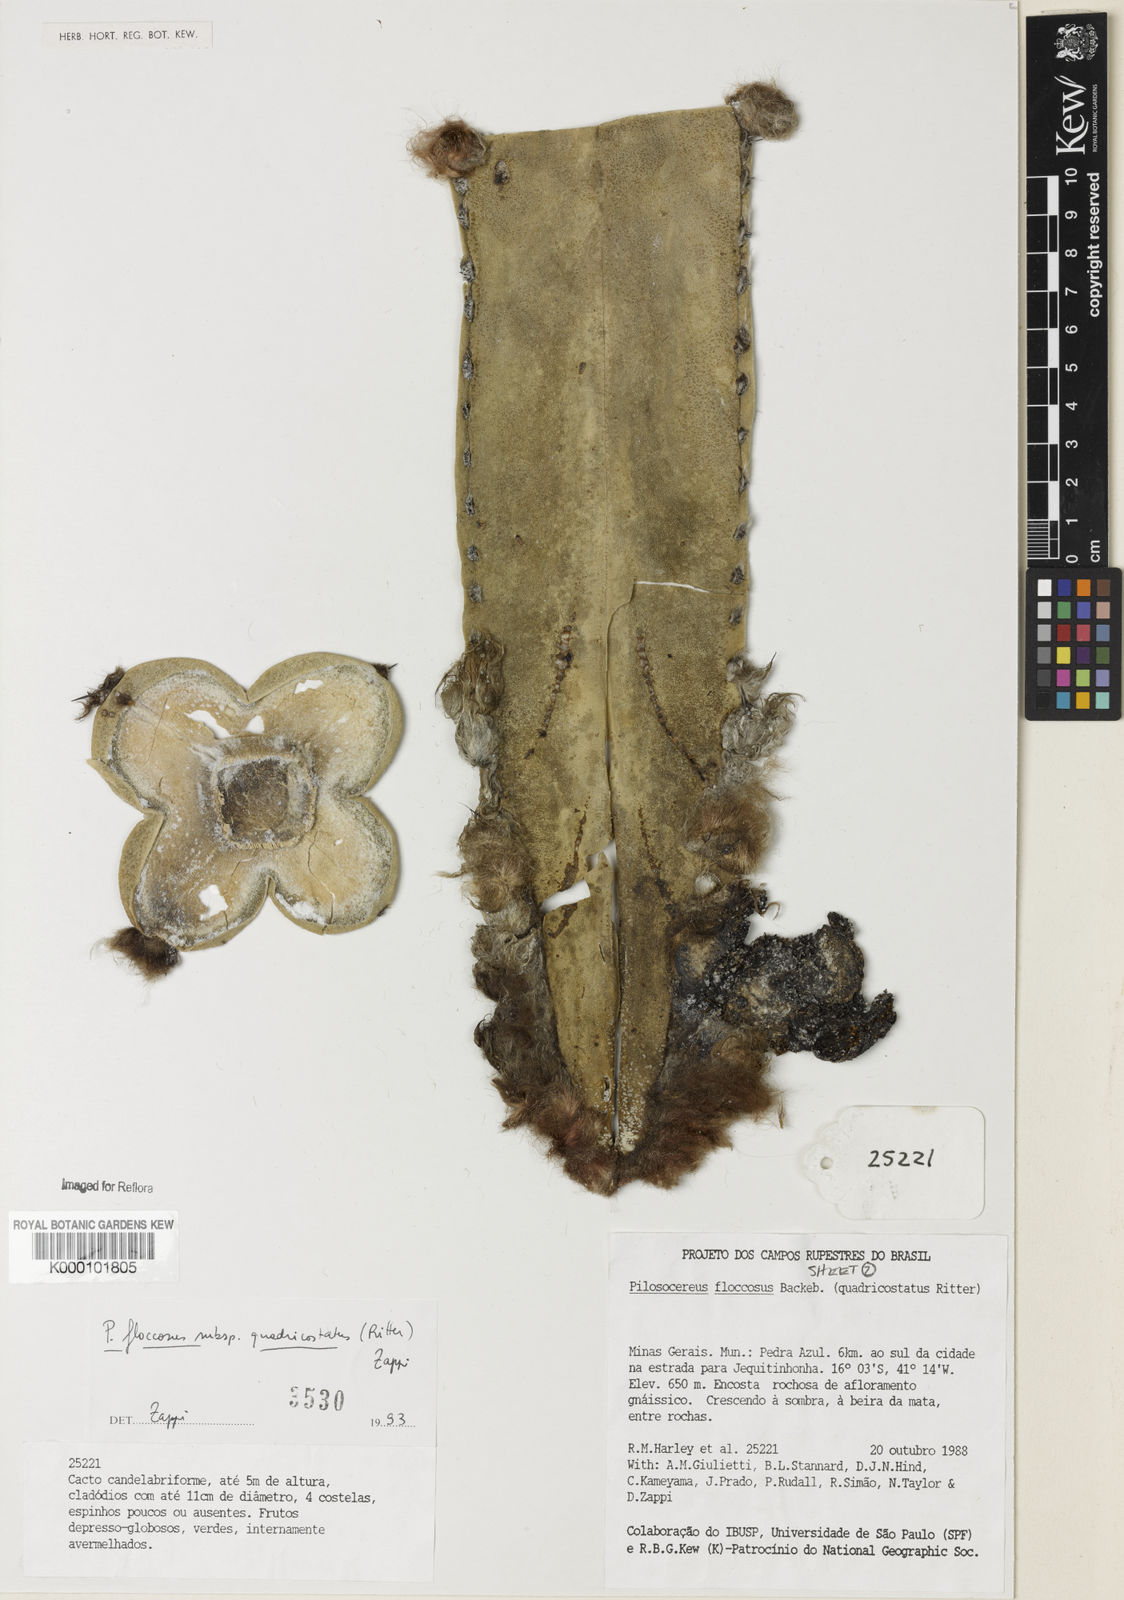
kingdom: Plantae
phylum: Tracheophyta
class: Magnoliopsida
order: Caryophyllales
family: Cactaceae
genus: Pilosocereus
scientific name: Pilosocereus floccosus
